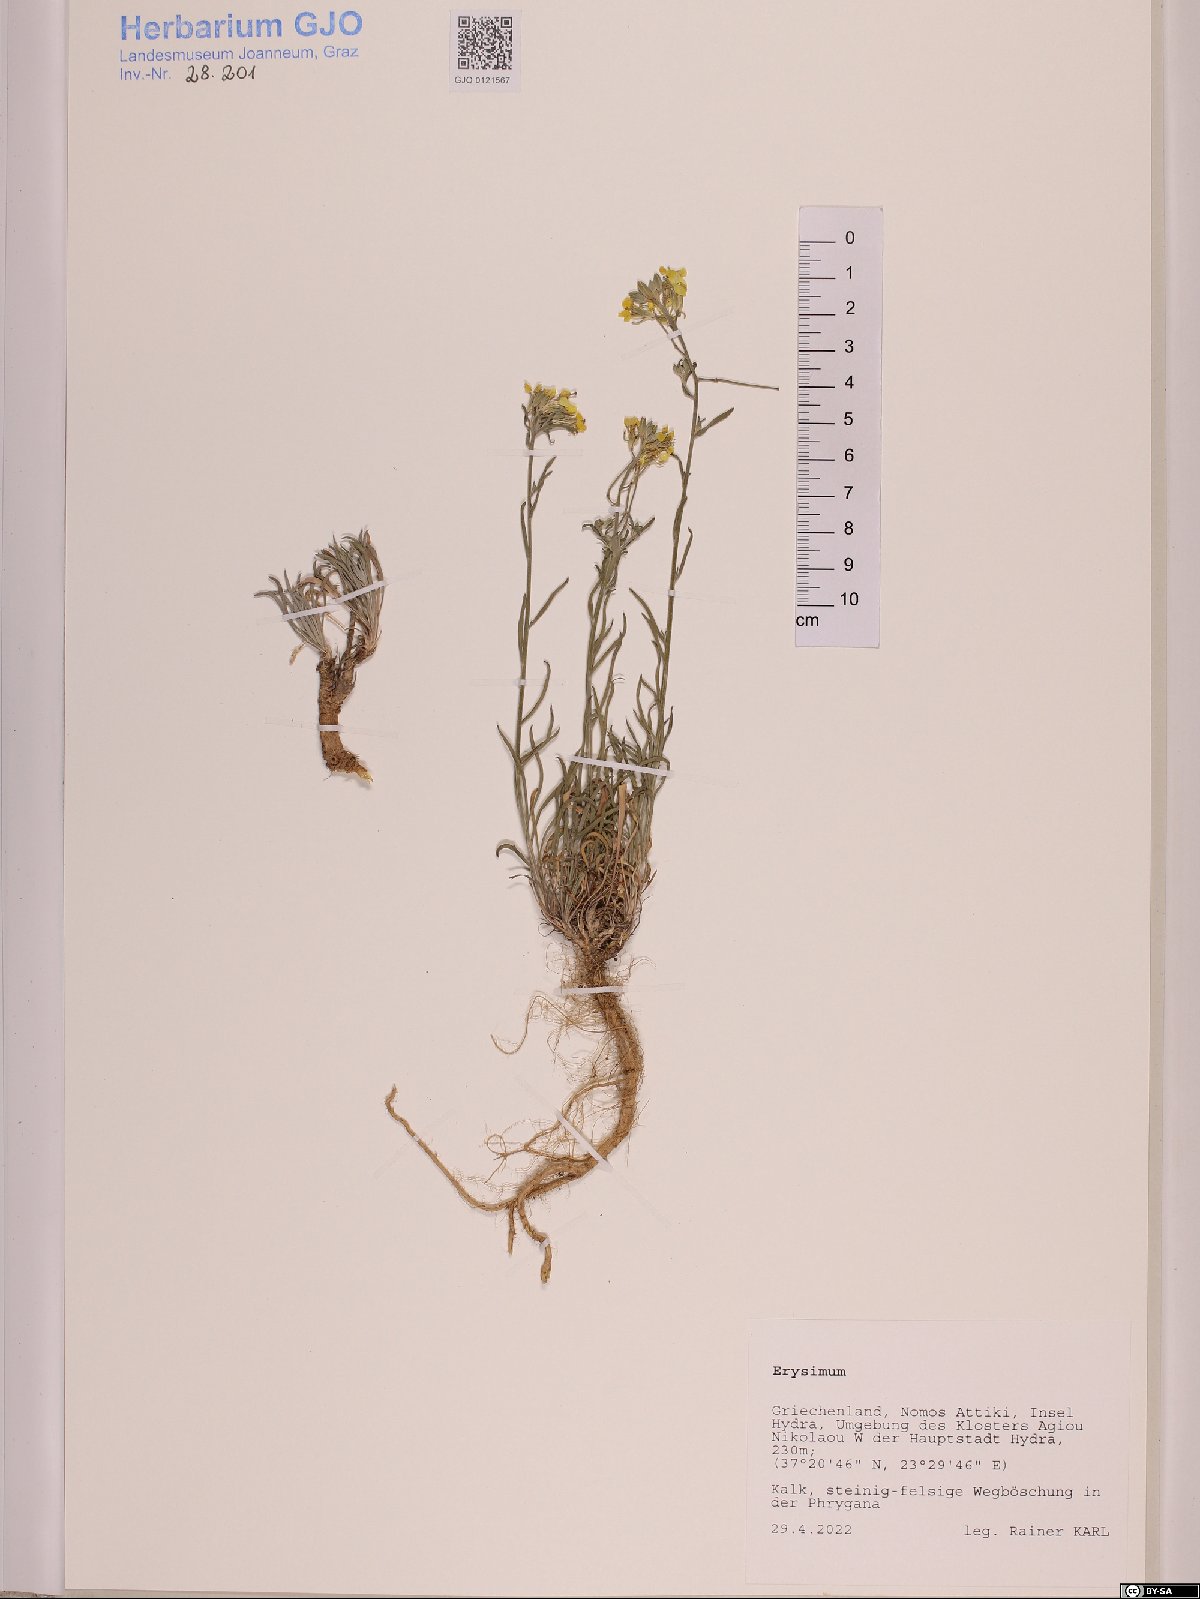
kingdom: Plantae
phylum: Tracheophyta
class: Magnoliopsida
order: Brassicales
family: Brassicaceae
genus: Erysimum
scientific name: Erysimum
